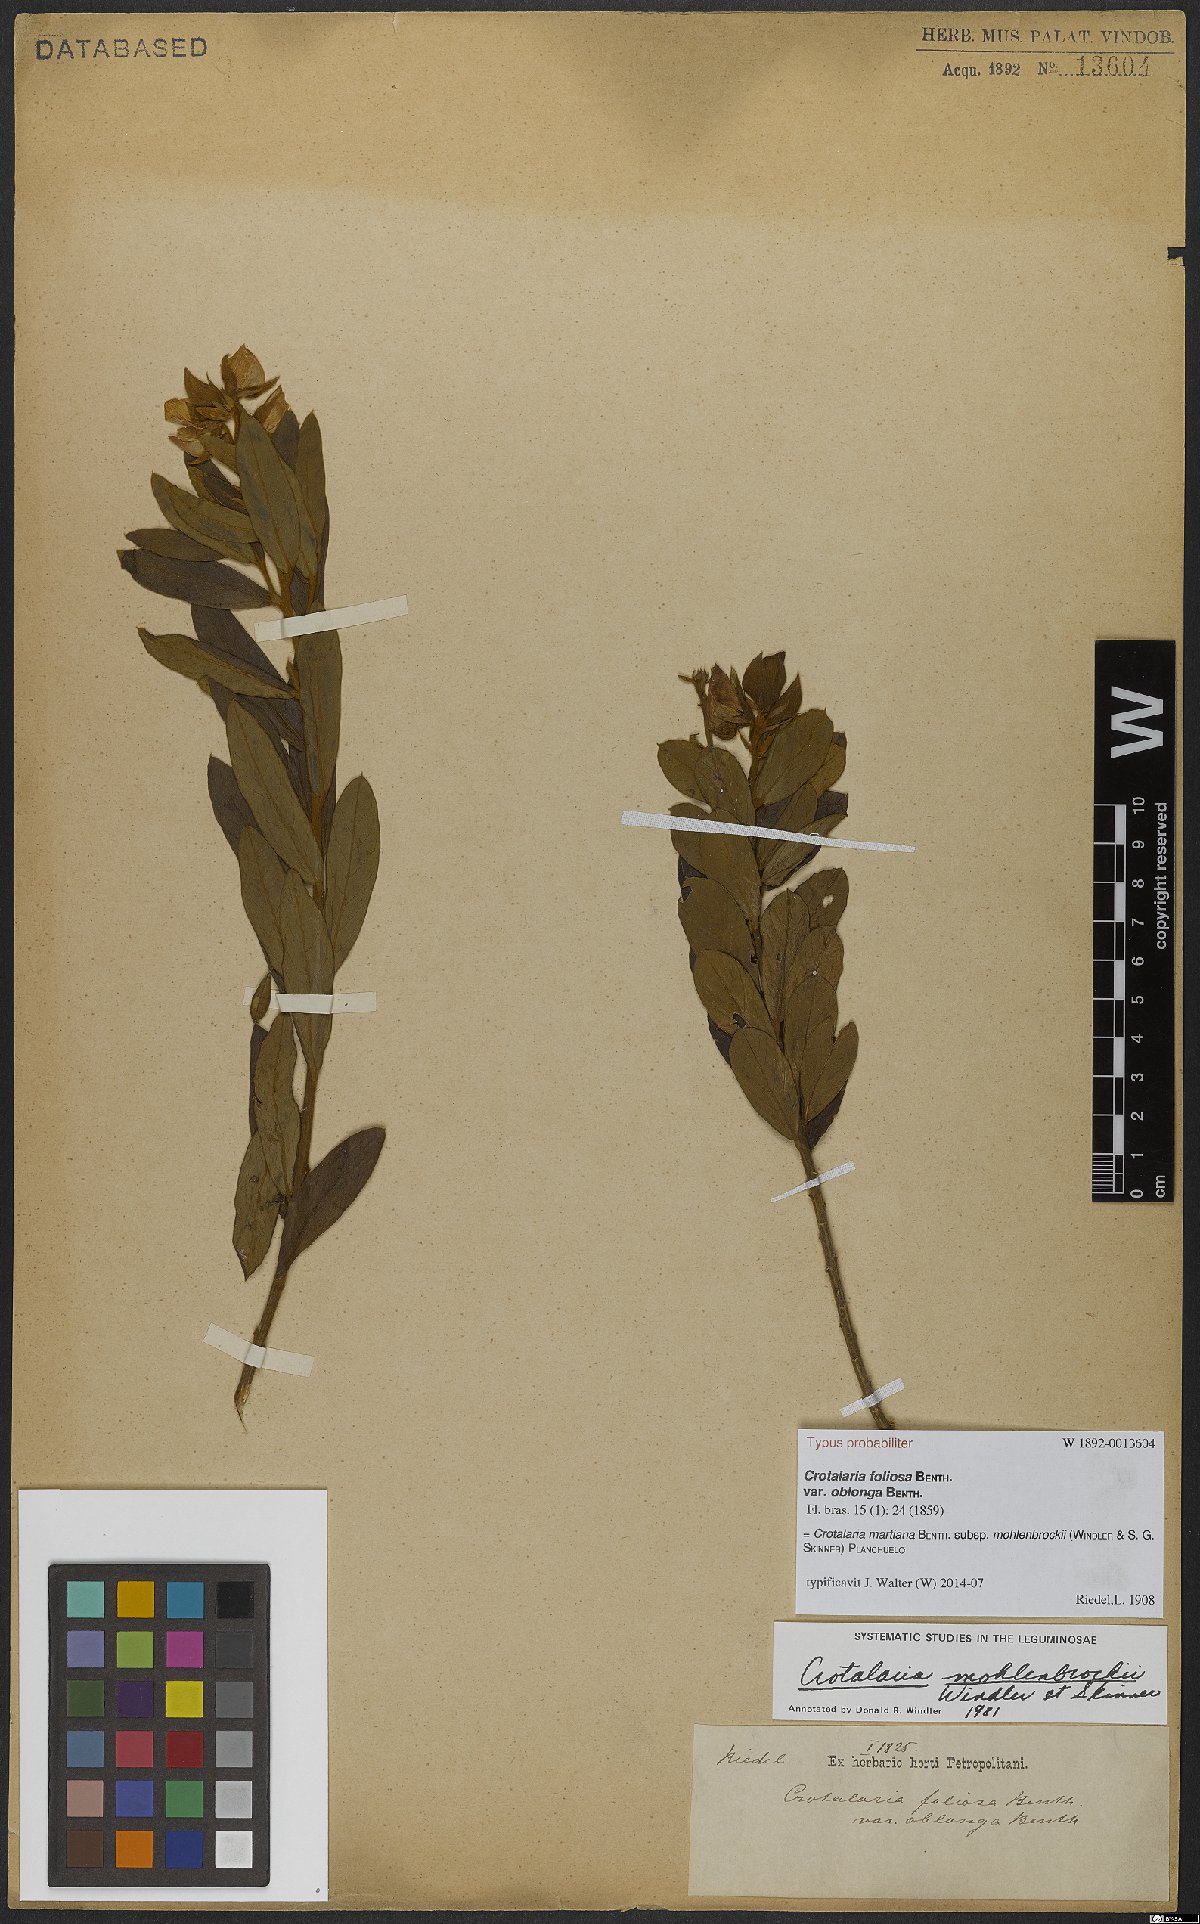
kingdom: Plantae
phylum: Tracheophyta
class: Magnoliopsida
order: Fabales
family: Fabaceae
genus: Crotalaria
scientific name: Crotalaria martiana
